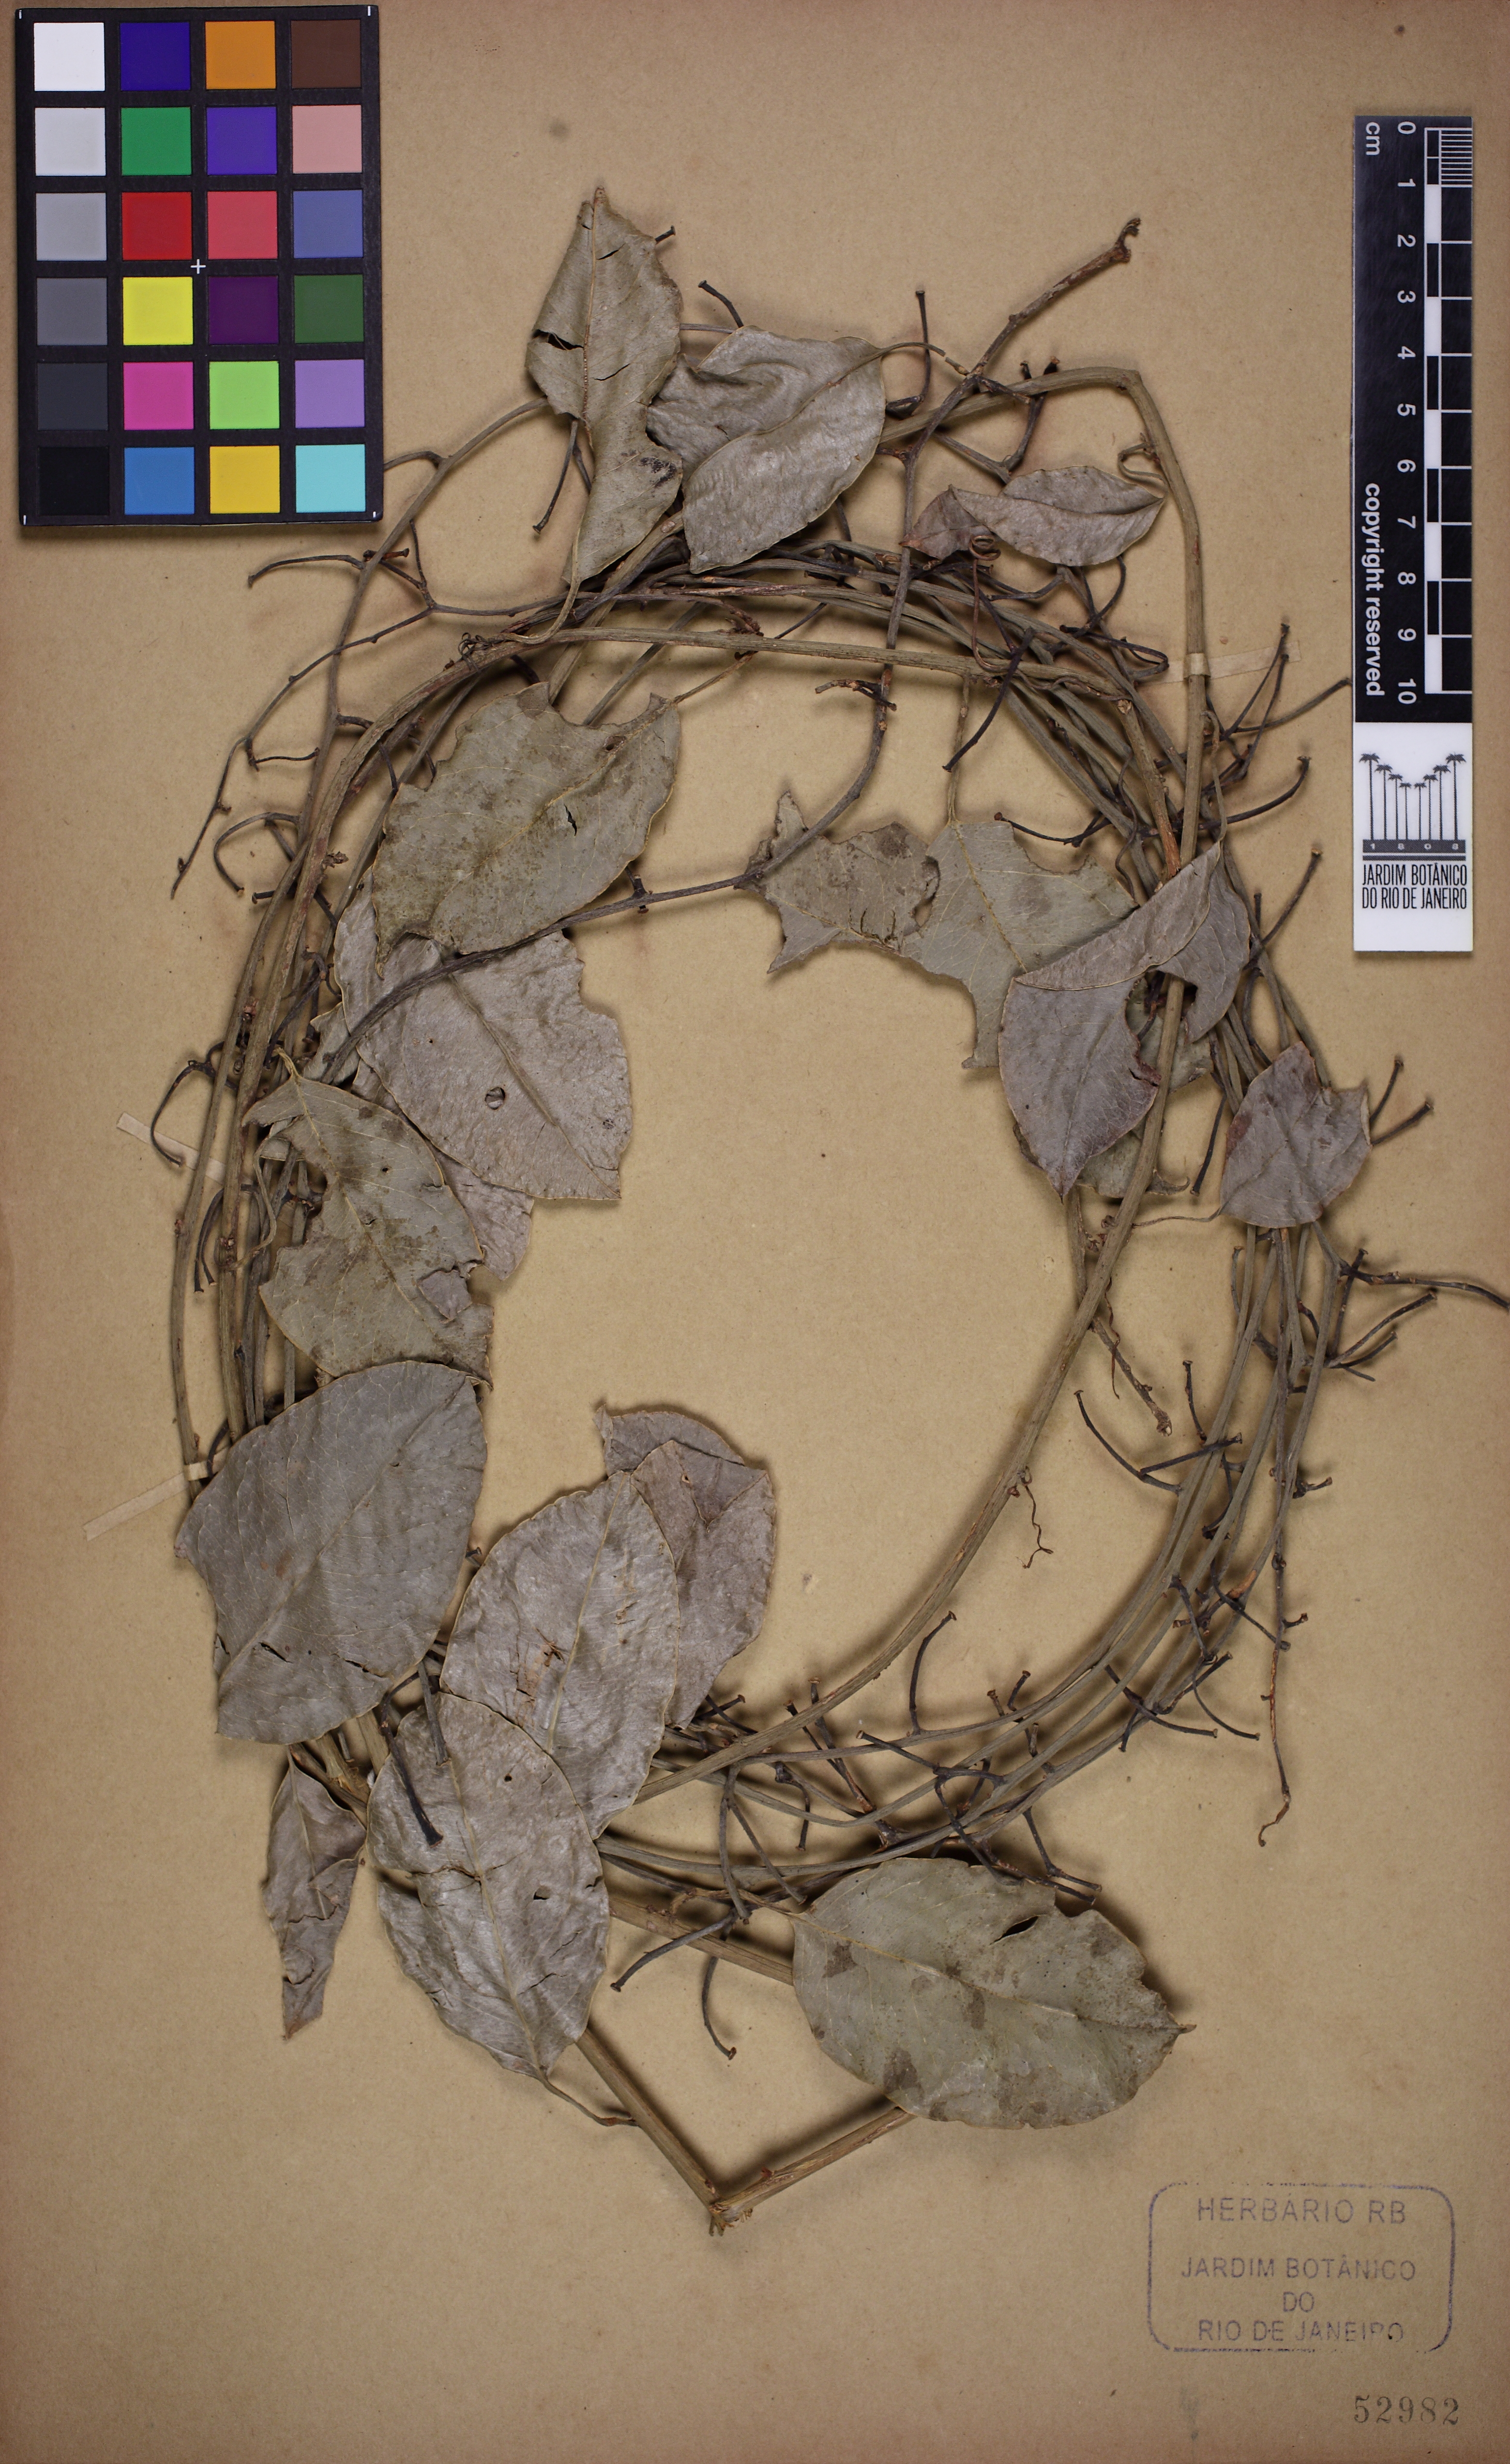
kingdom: Plantae
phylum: Tracheophyta
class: Magnoliopsida
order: Malpighiales
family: Passifloraceae
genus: Passiflora
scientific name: Passiflora ovalis
